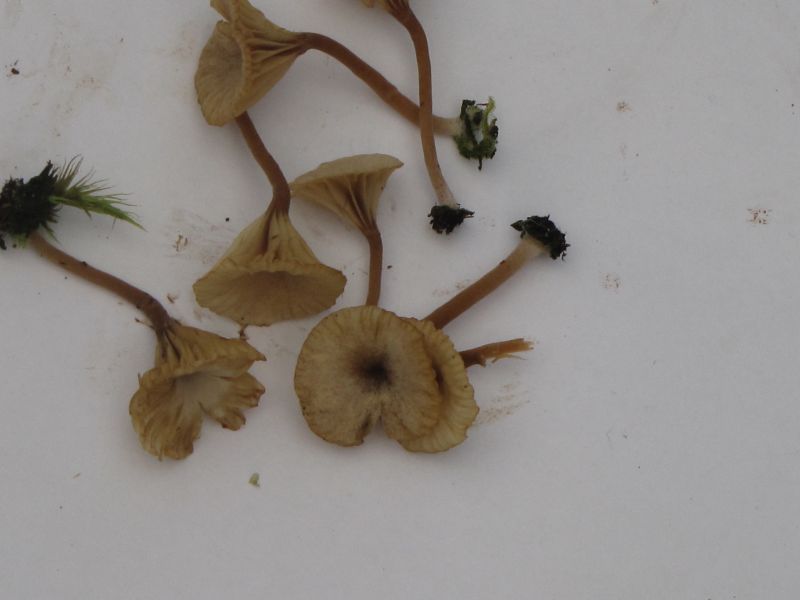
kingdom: Fungi
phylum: Basidiomycota
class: Agaricomycetes
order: Agaricales
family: Hygrophoraceae
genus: Lichenomphalia
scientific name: Lichenomphalia umbellifera
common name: tørve-lavhat
